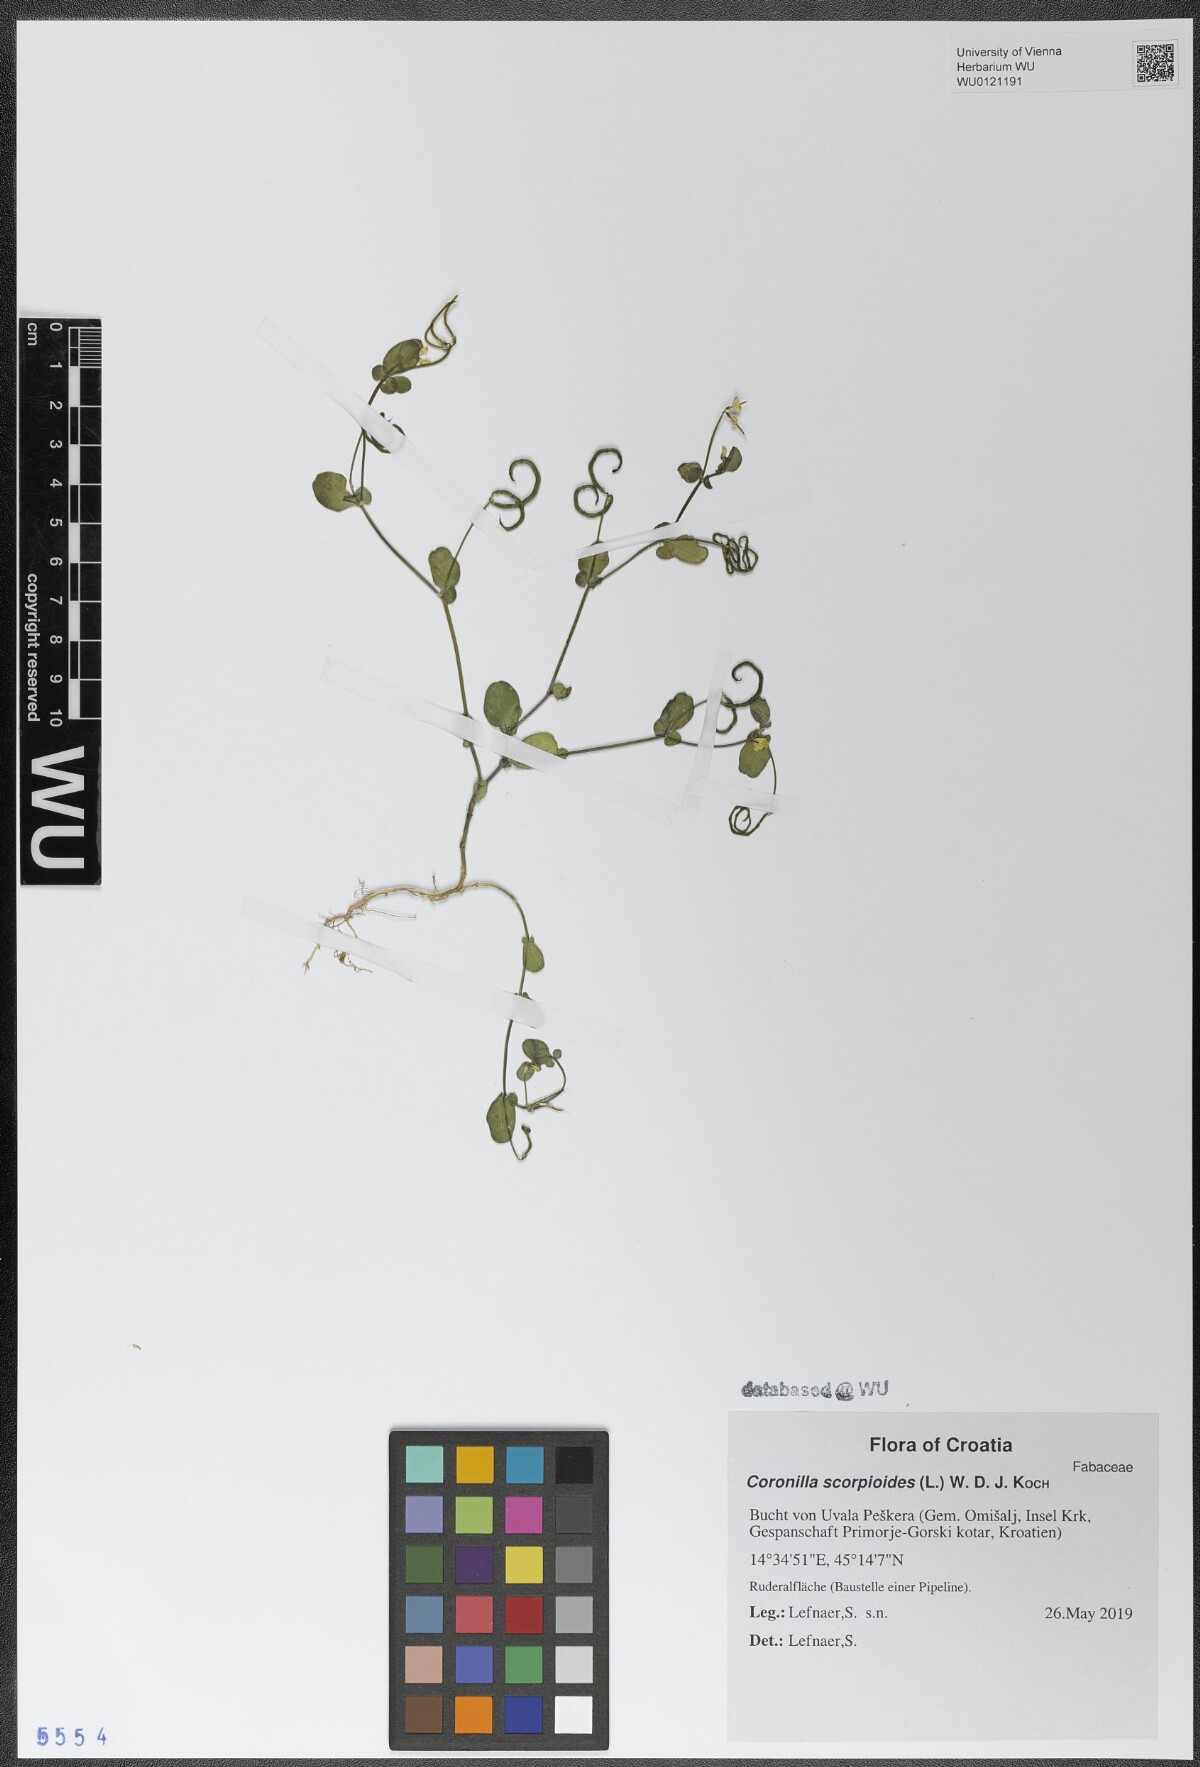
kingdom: Plantae
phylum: Tracheophyta
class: Magnoliopsida
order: Fabales
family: Fabaceae
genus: Coronilla
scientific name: Coronilla scorpioides
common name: Annual scorpion-vetch
